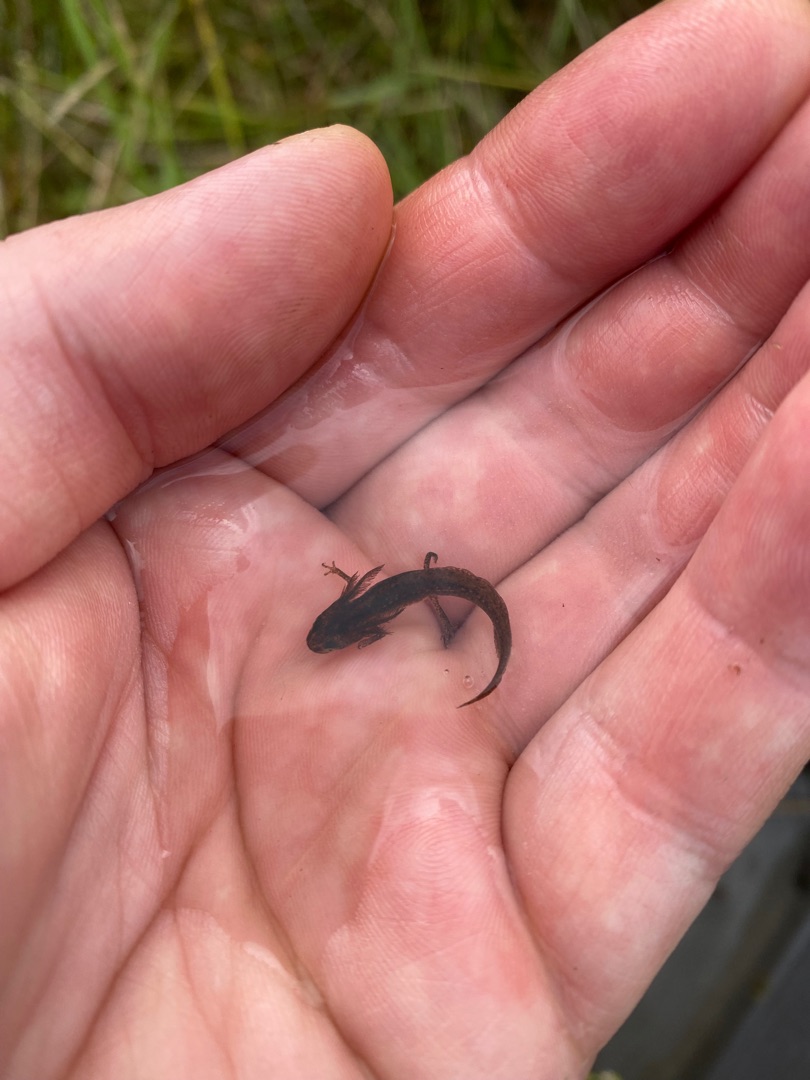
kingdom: Animalia
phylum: Chordata
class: Amphibia
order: Caudata
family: Salamandridae
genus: Lissotriton
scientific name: Lissotriton vulgaris
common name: Lille vandsalamander
